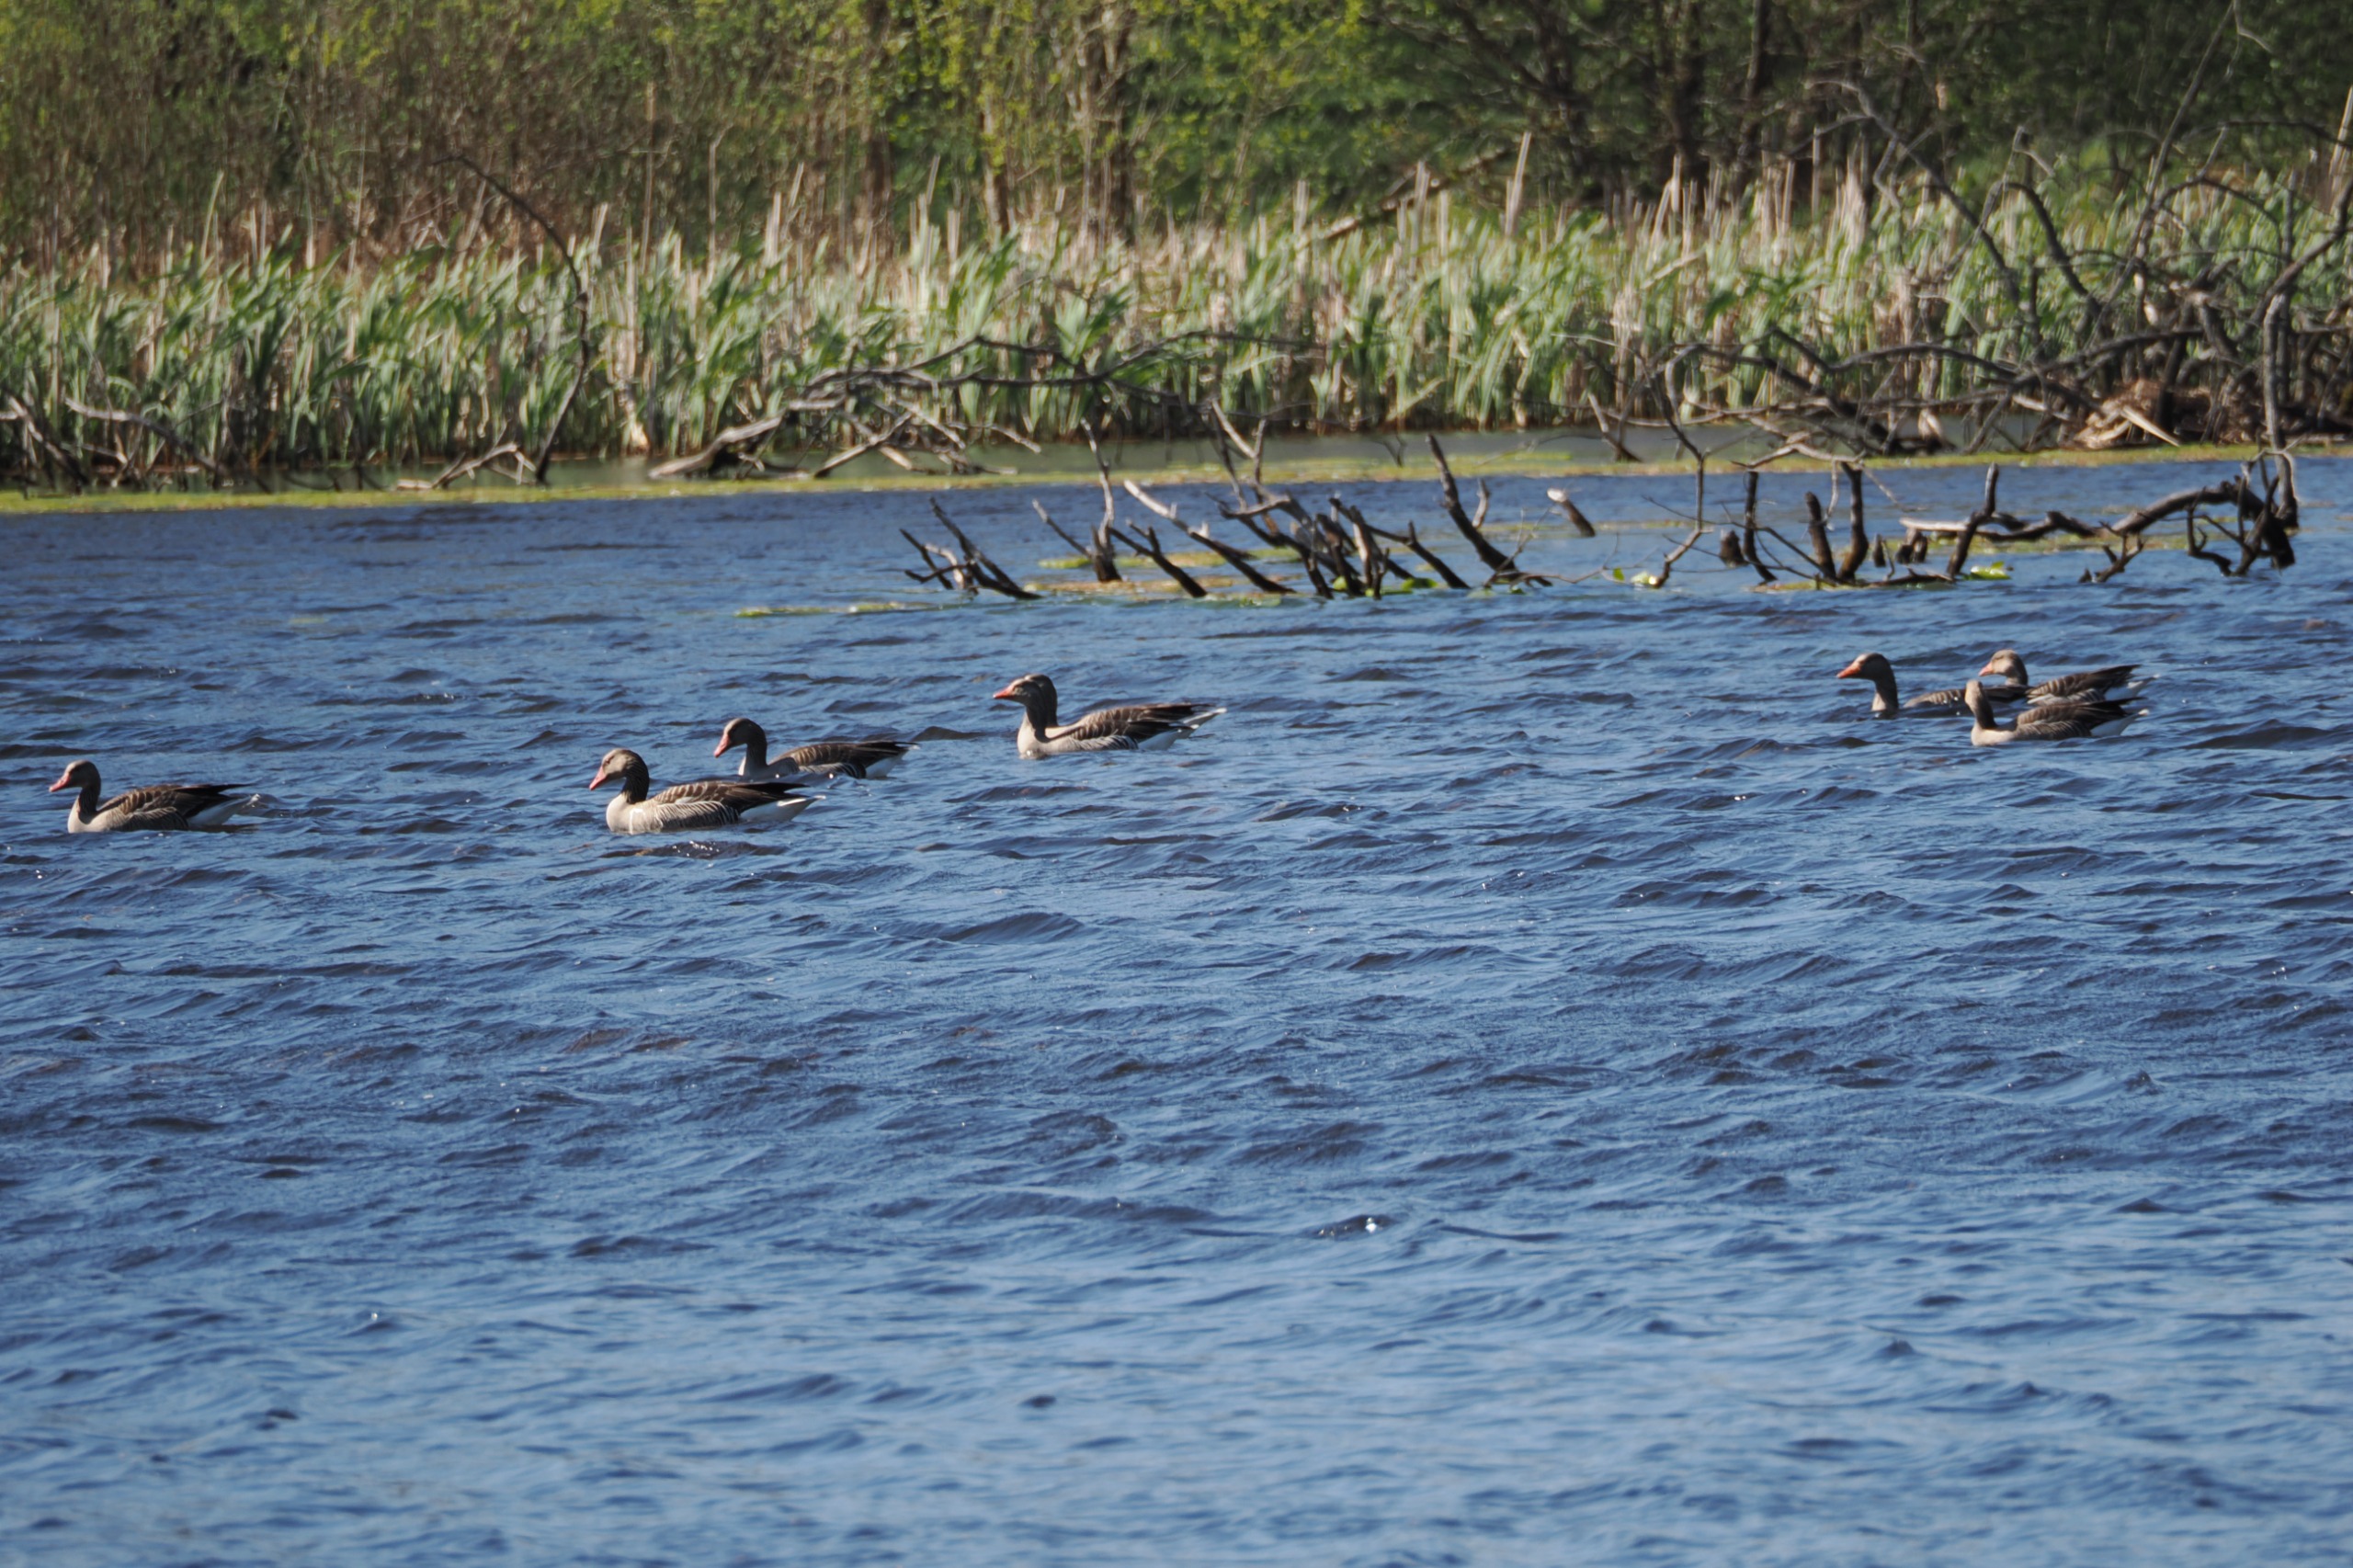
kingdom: Animalia
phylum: Chordata
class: Aves
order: Anseriformes
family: Anatidae
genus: Anser
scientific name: Anser anser
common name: Grågås
